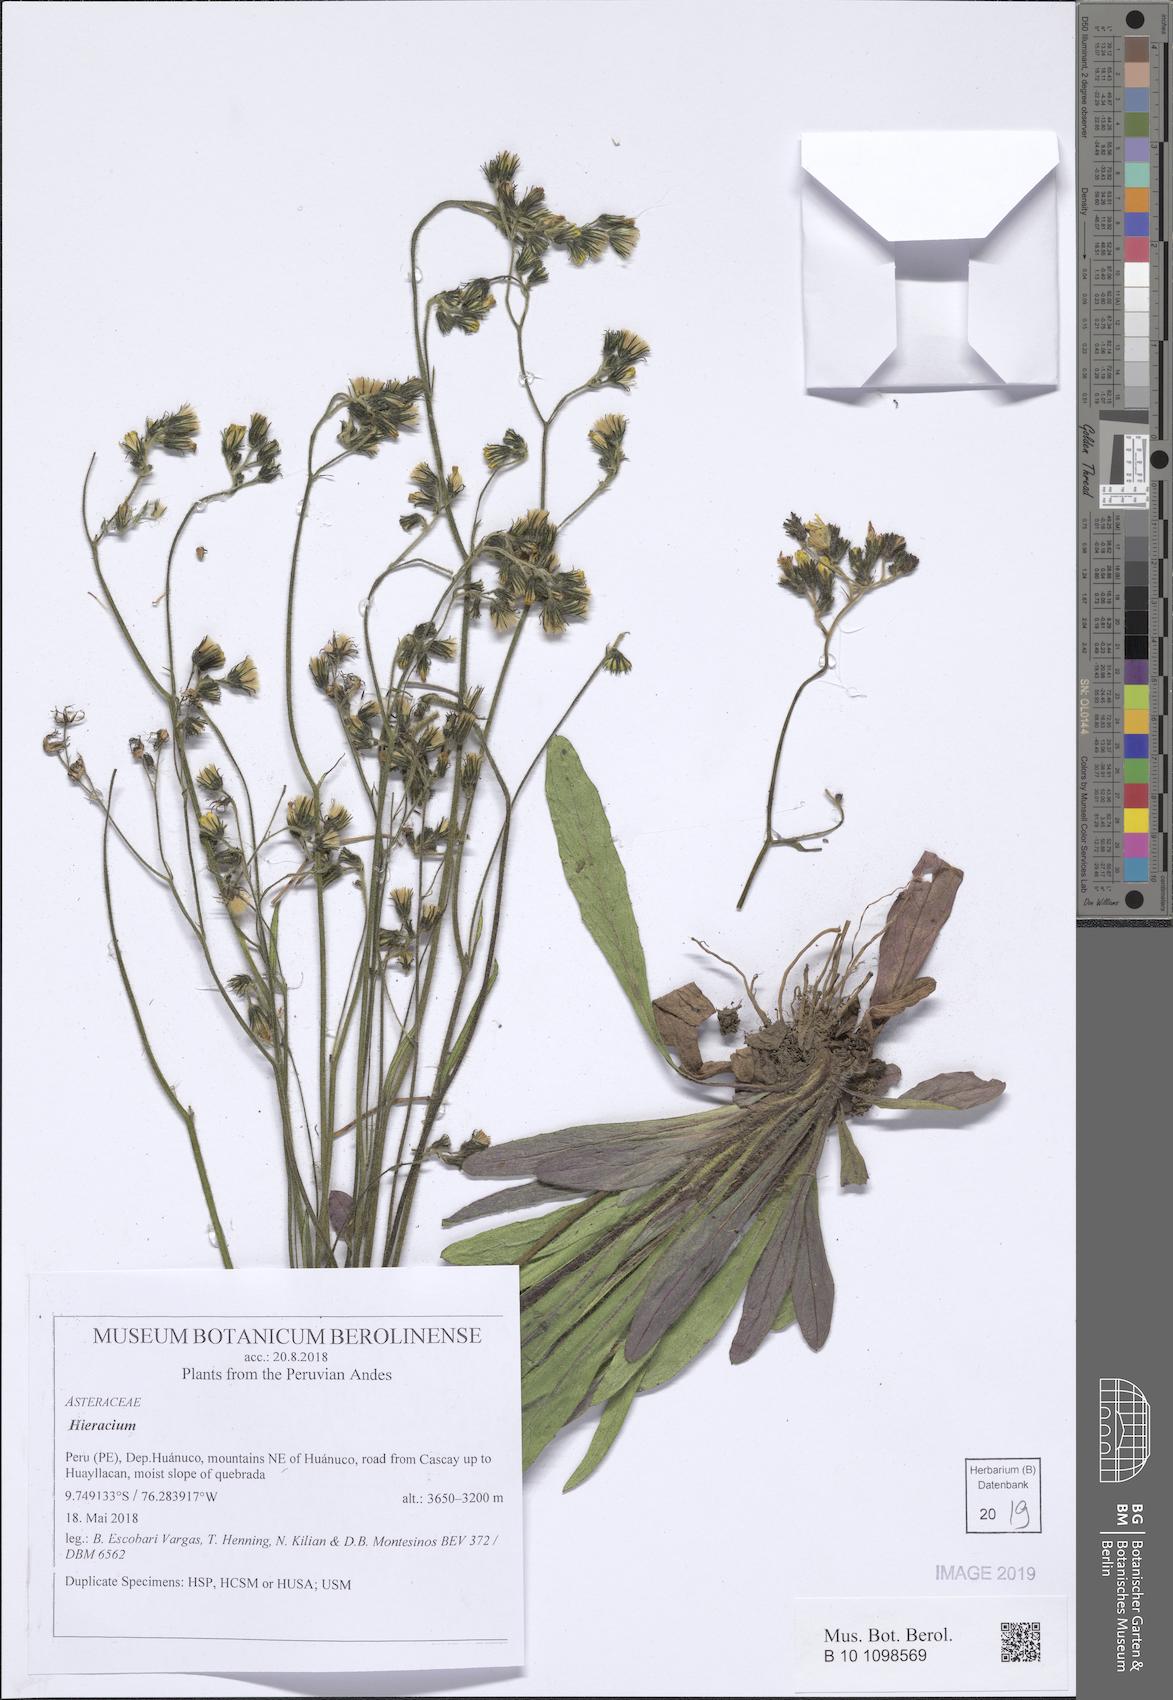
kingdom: Plantae
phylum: Tracheophyta
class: Magnoliopsida
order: Asterales
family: Asteraceae
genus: Hieracium
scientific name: Hieracium
